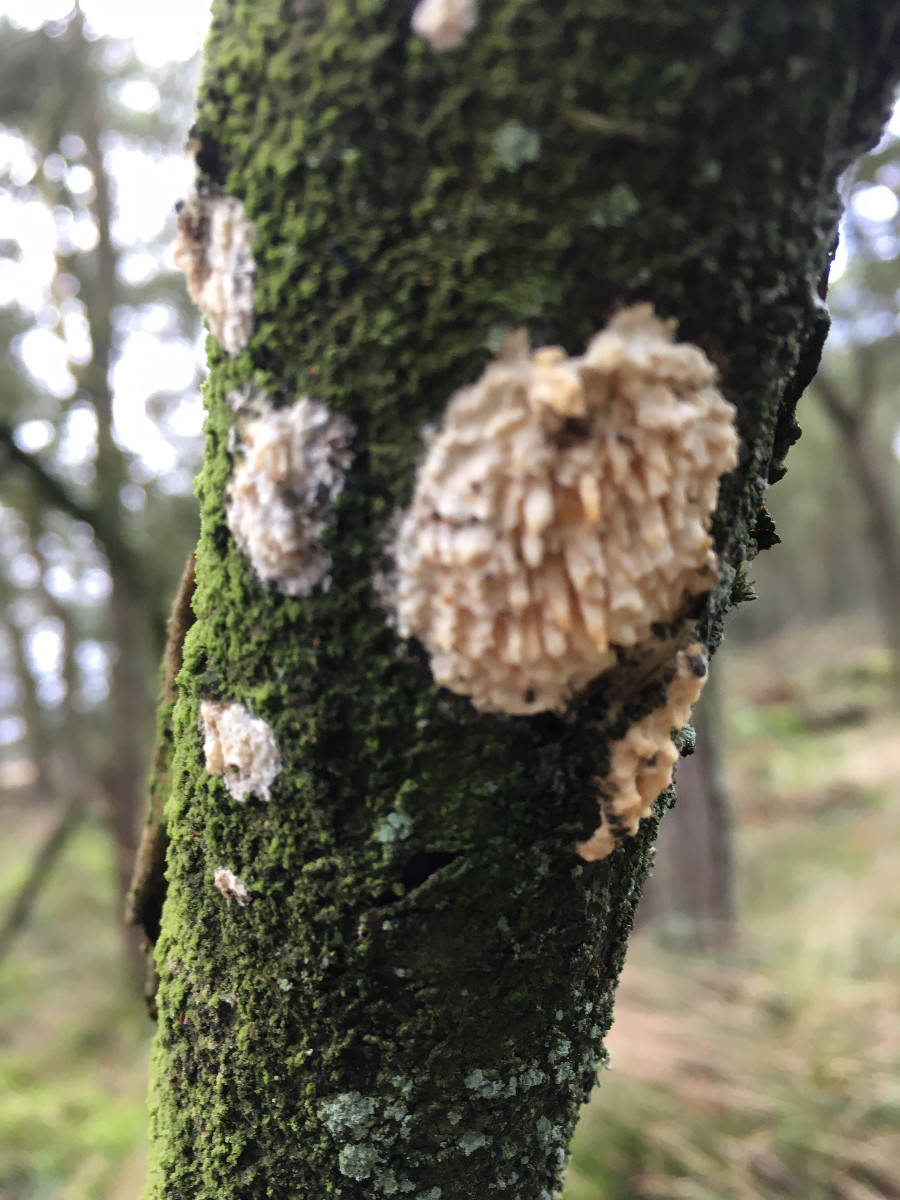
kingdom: Fungi
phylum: Basidiomycota
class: Agaricomycetes
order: Hymenochaetales
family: Schizoporaceae
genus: Xylodon
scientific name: Xylodon radula
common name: grovtandet kalkskind
